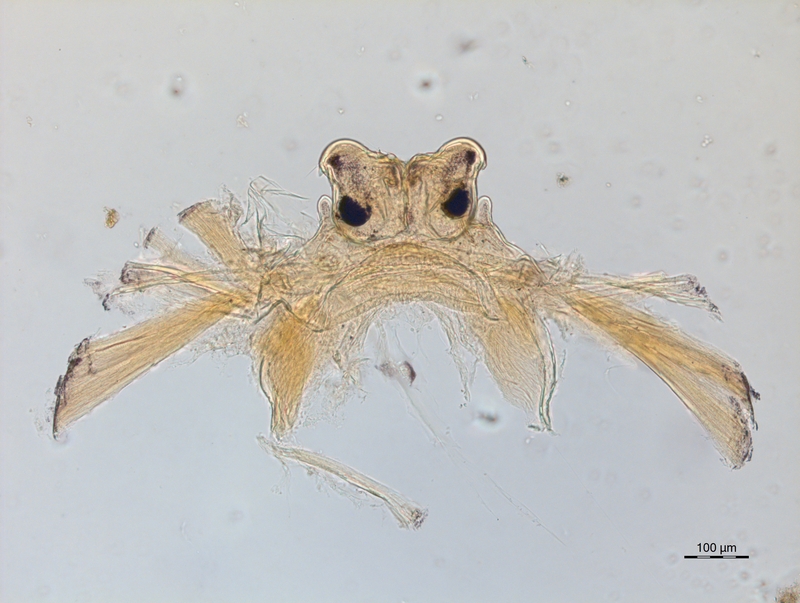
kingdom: Animalia
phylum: Arthropoda
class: Diplopoda
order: Chordeumatida
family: Craspedosomatidae
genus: Ochogona
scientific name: Ochogona caroli
